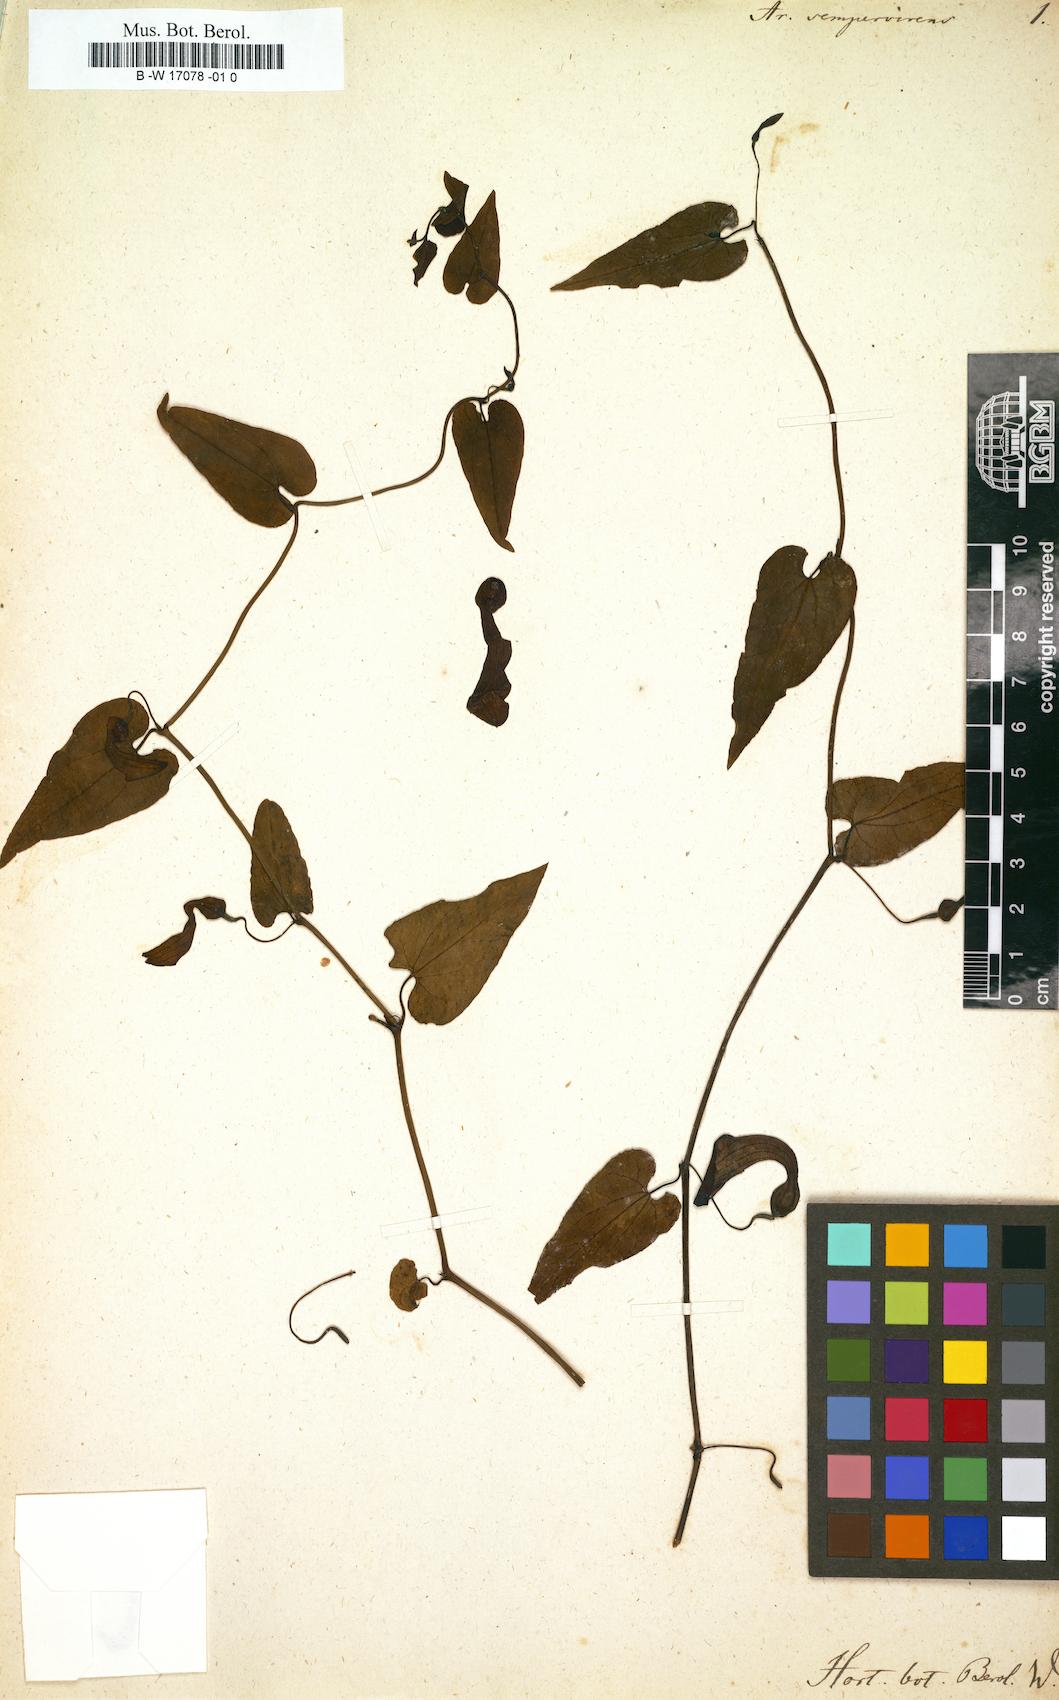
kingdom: Plantae
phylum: Tracheophyta
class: Magnoliopsida
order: Piperales
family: Aristolochiaceae
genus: Aristolochia
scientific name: Aristolochia sempervirens
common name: Long birthwort
